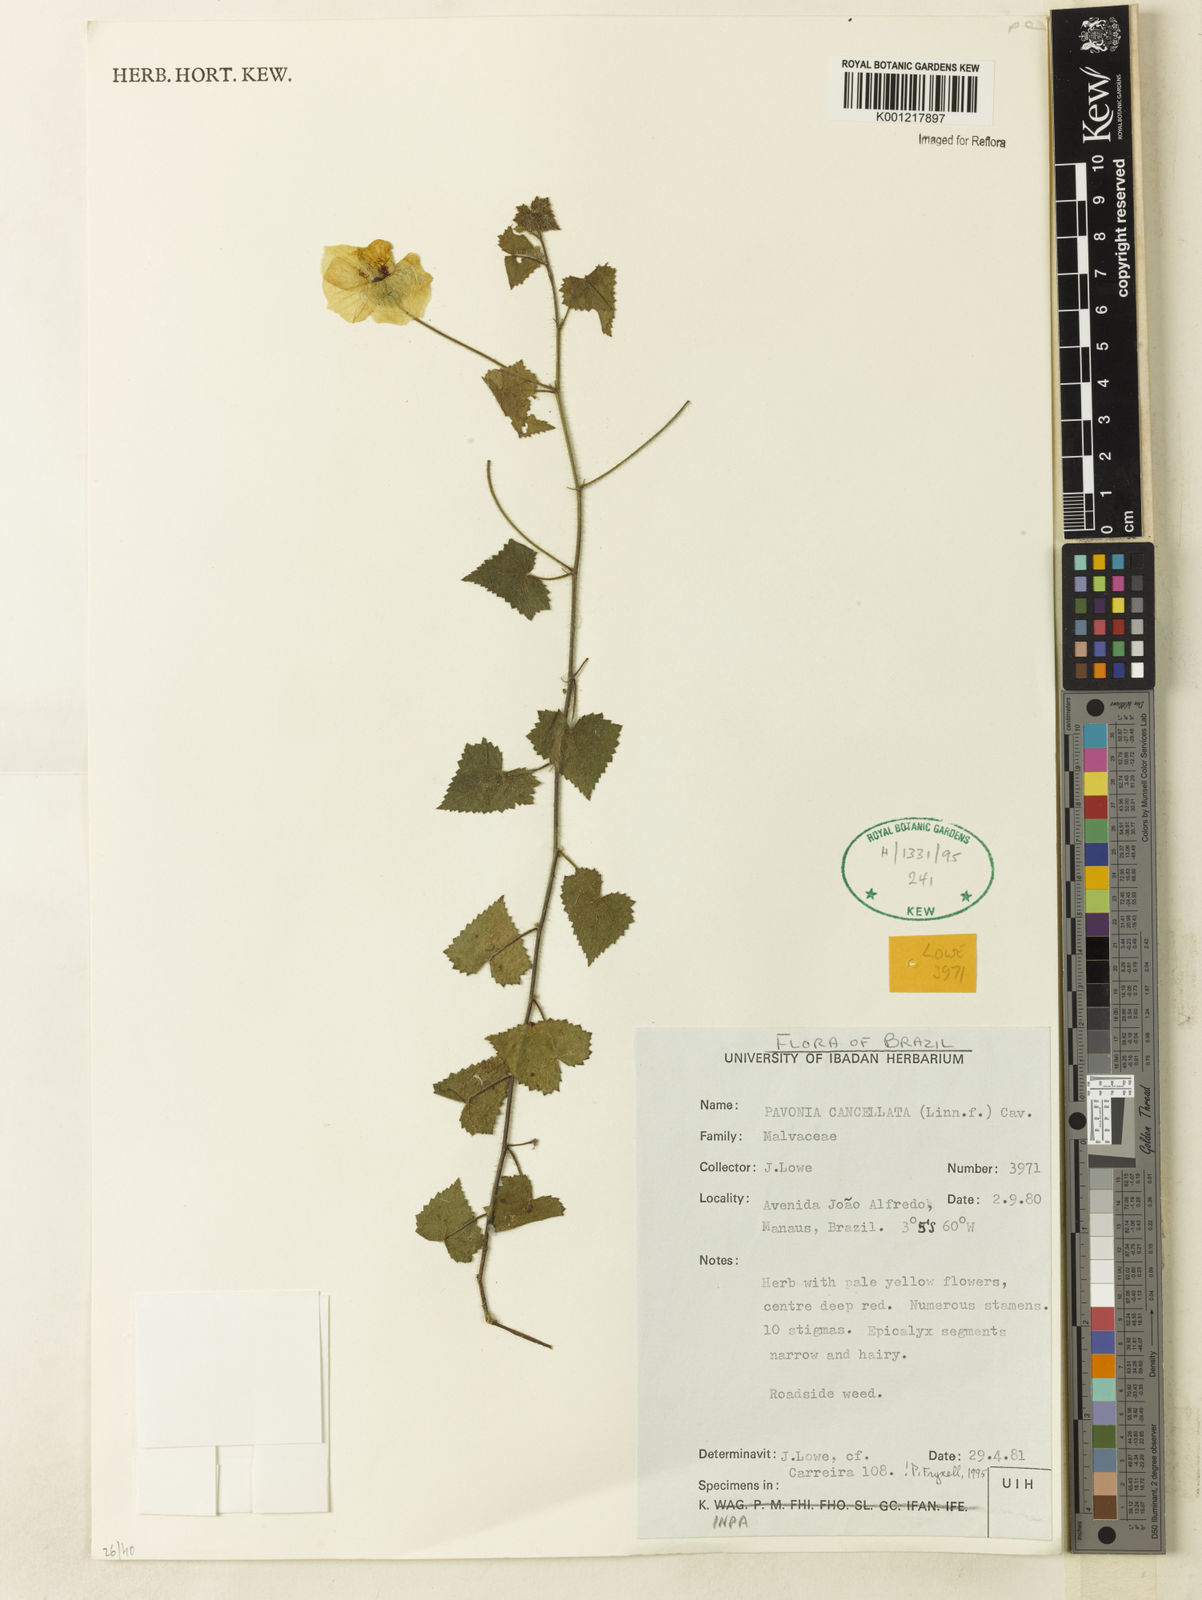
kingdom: Plantae
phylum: Tracheophyta
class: Magnoliopsida
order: Malvales
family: Malvaceae
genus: Pavonia
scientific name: Pavonia cancellata
